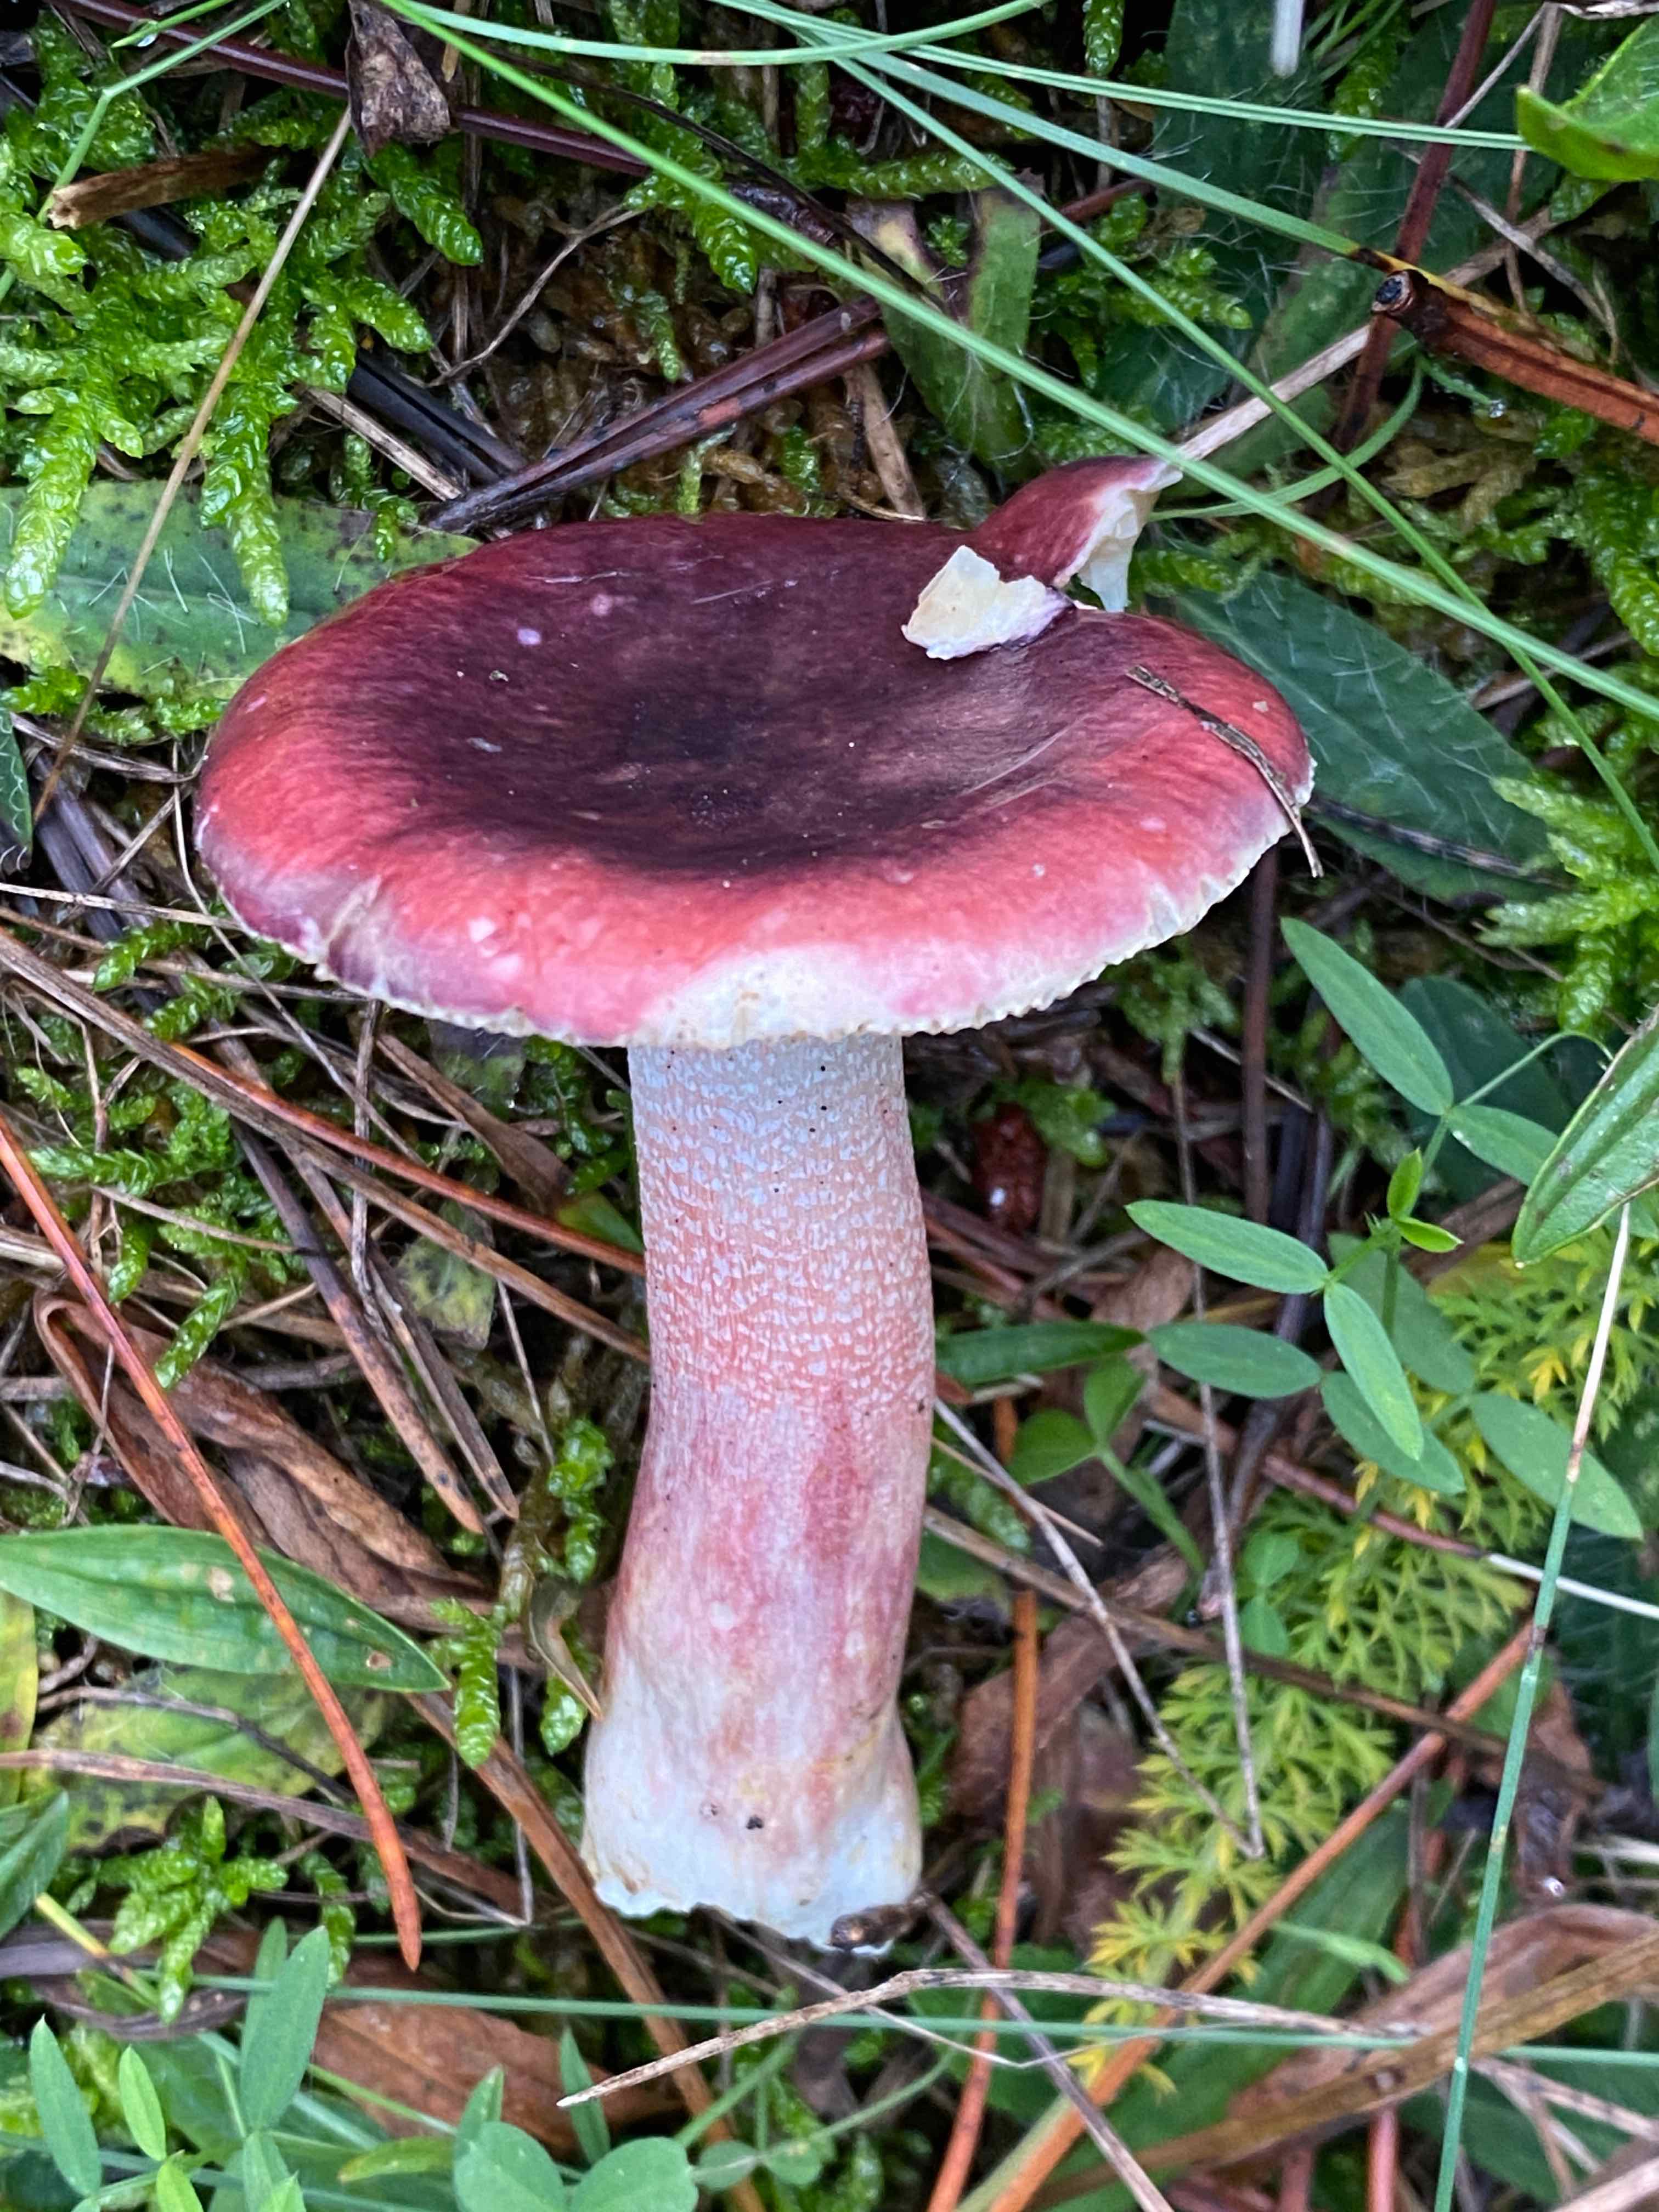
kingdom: Fungi
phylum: Basidiomycota
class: Agaricomycetes
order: Russulales
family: Russulaceae
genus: Russula
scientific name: Russula sardonia
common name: citronbladet skørhat
